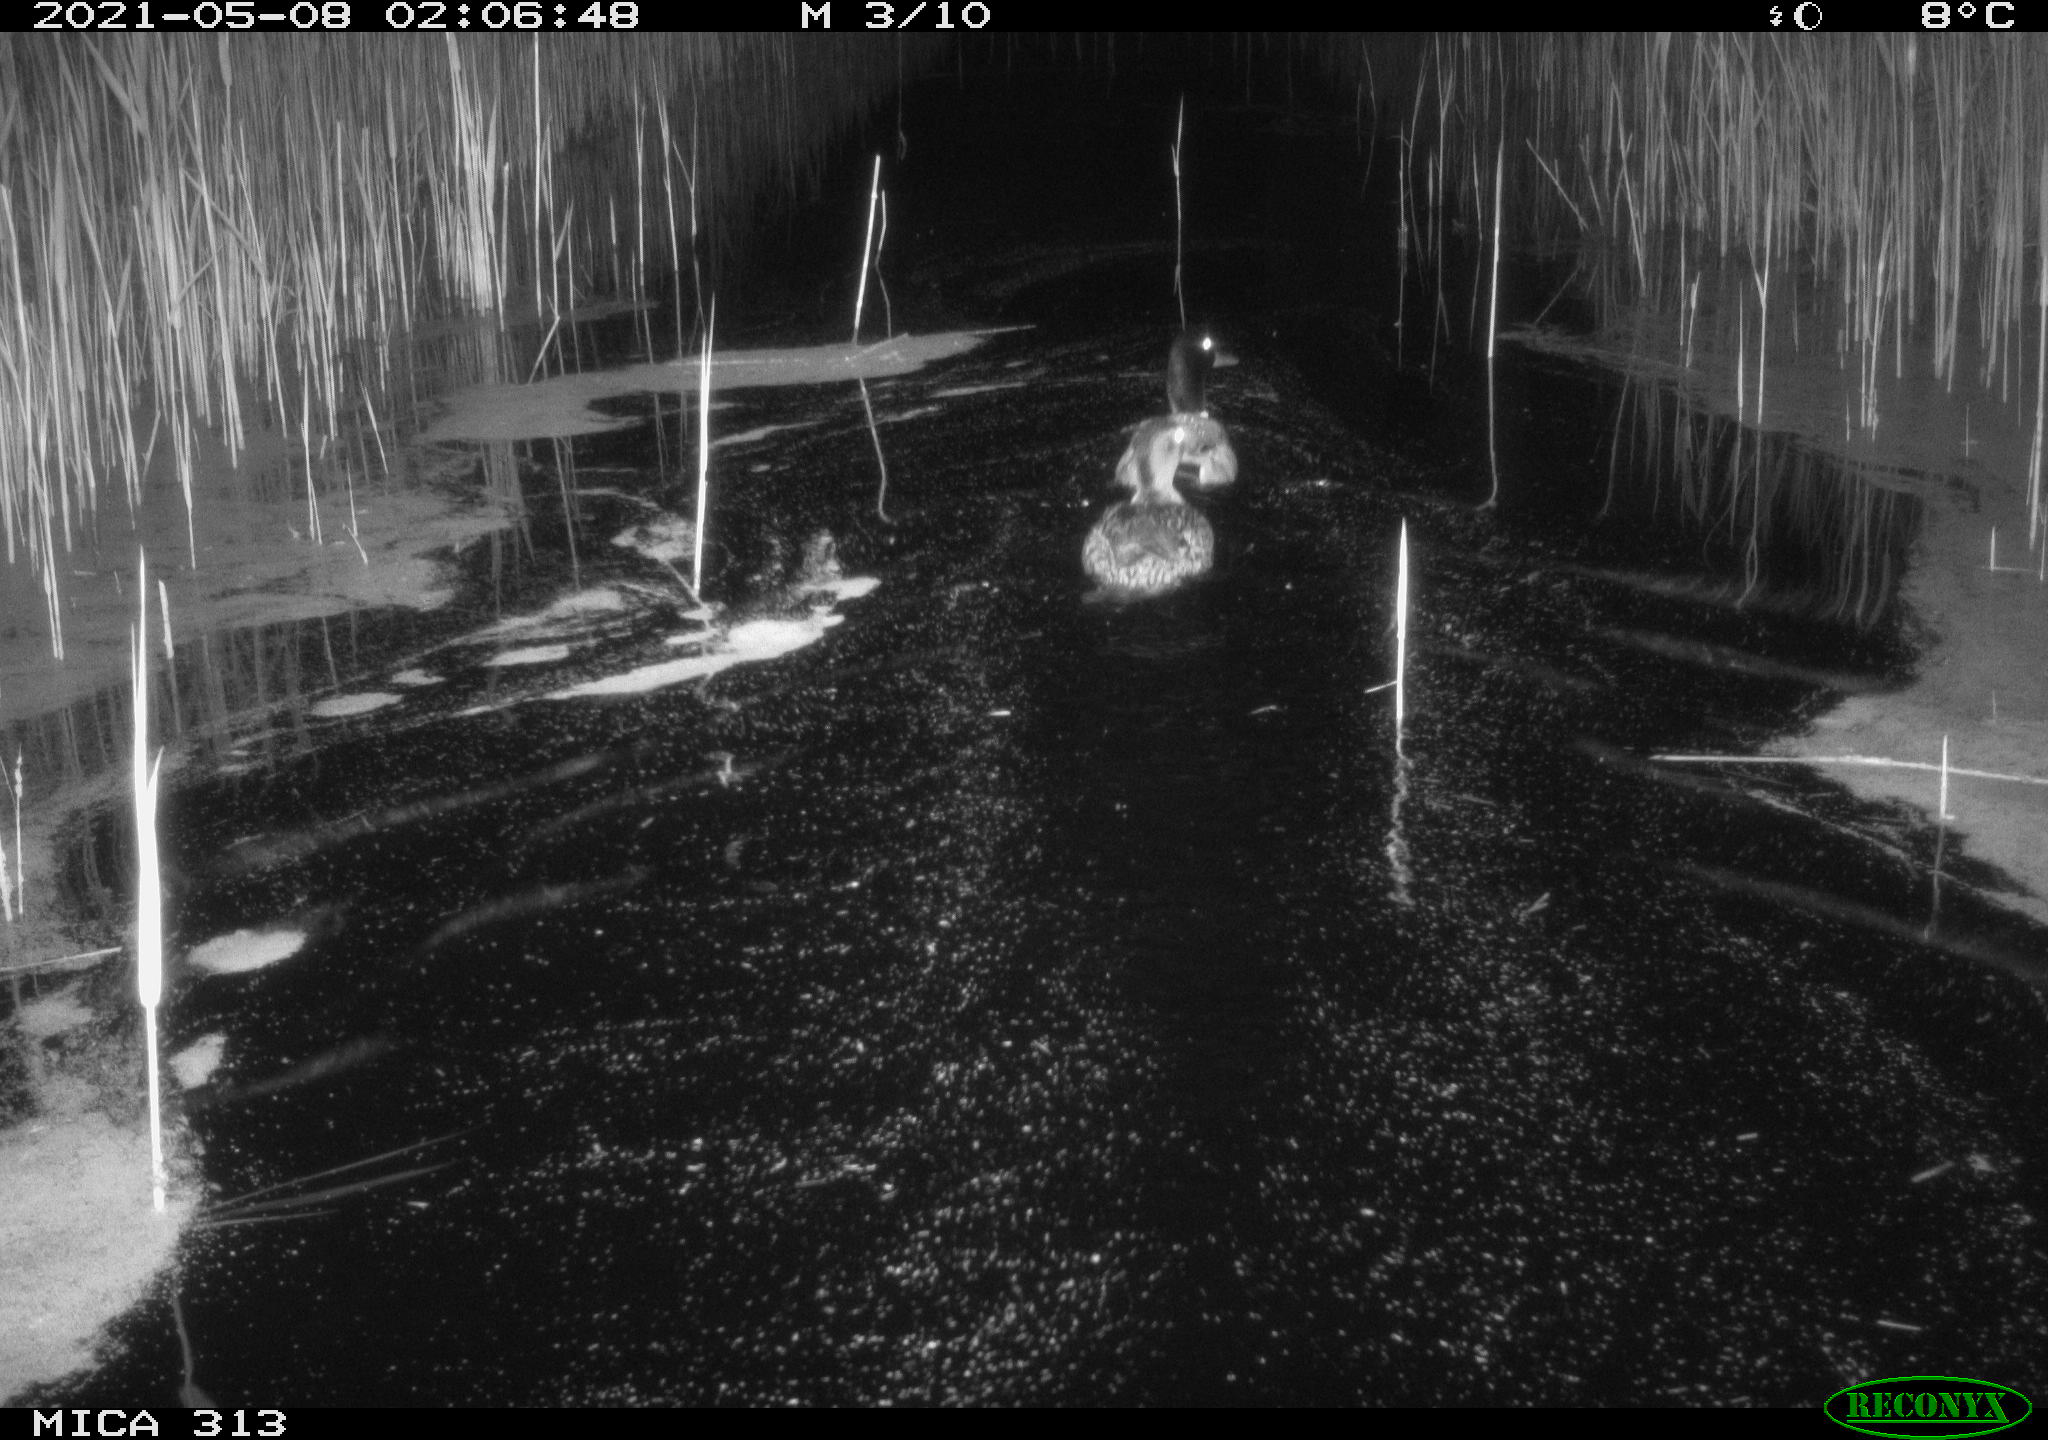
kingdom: Animalia
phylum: Chordata
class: Aves
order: Anseriformes
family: Anatidae
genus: Anas
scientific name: Anas platyrhynchos
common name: Mallard
